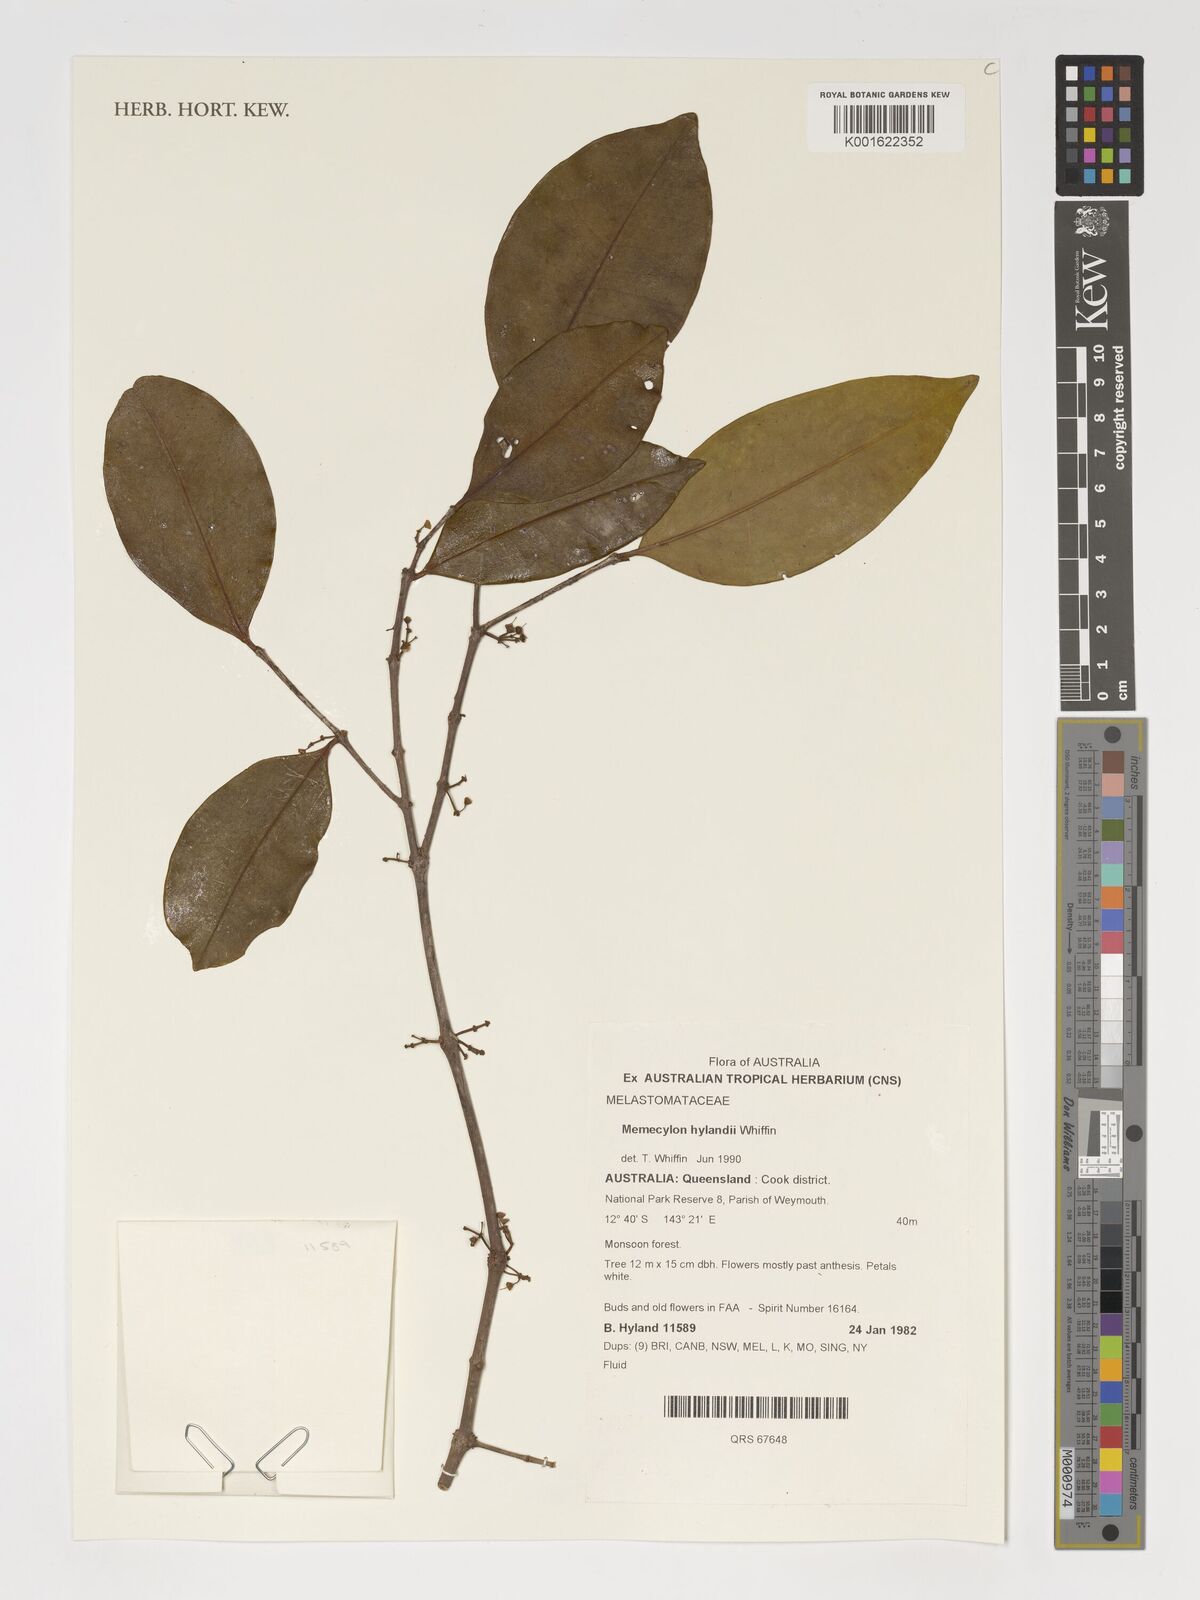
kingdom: Plantae
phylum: Tracheophyta
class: Magnoliopsida
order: Myrtales
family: Melastomataceae
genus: Memecylon
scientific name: Memecylon hylandii
